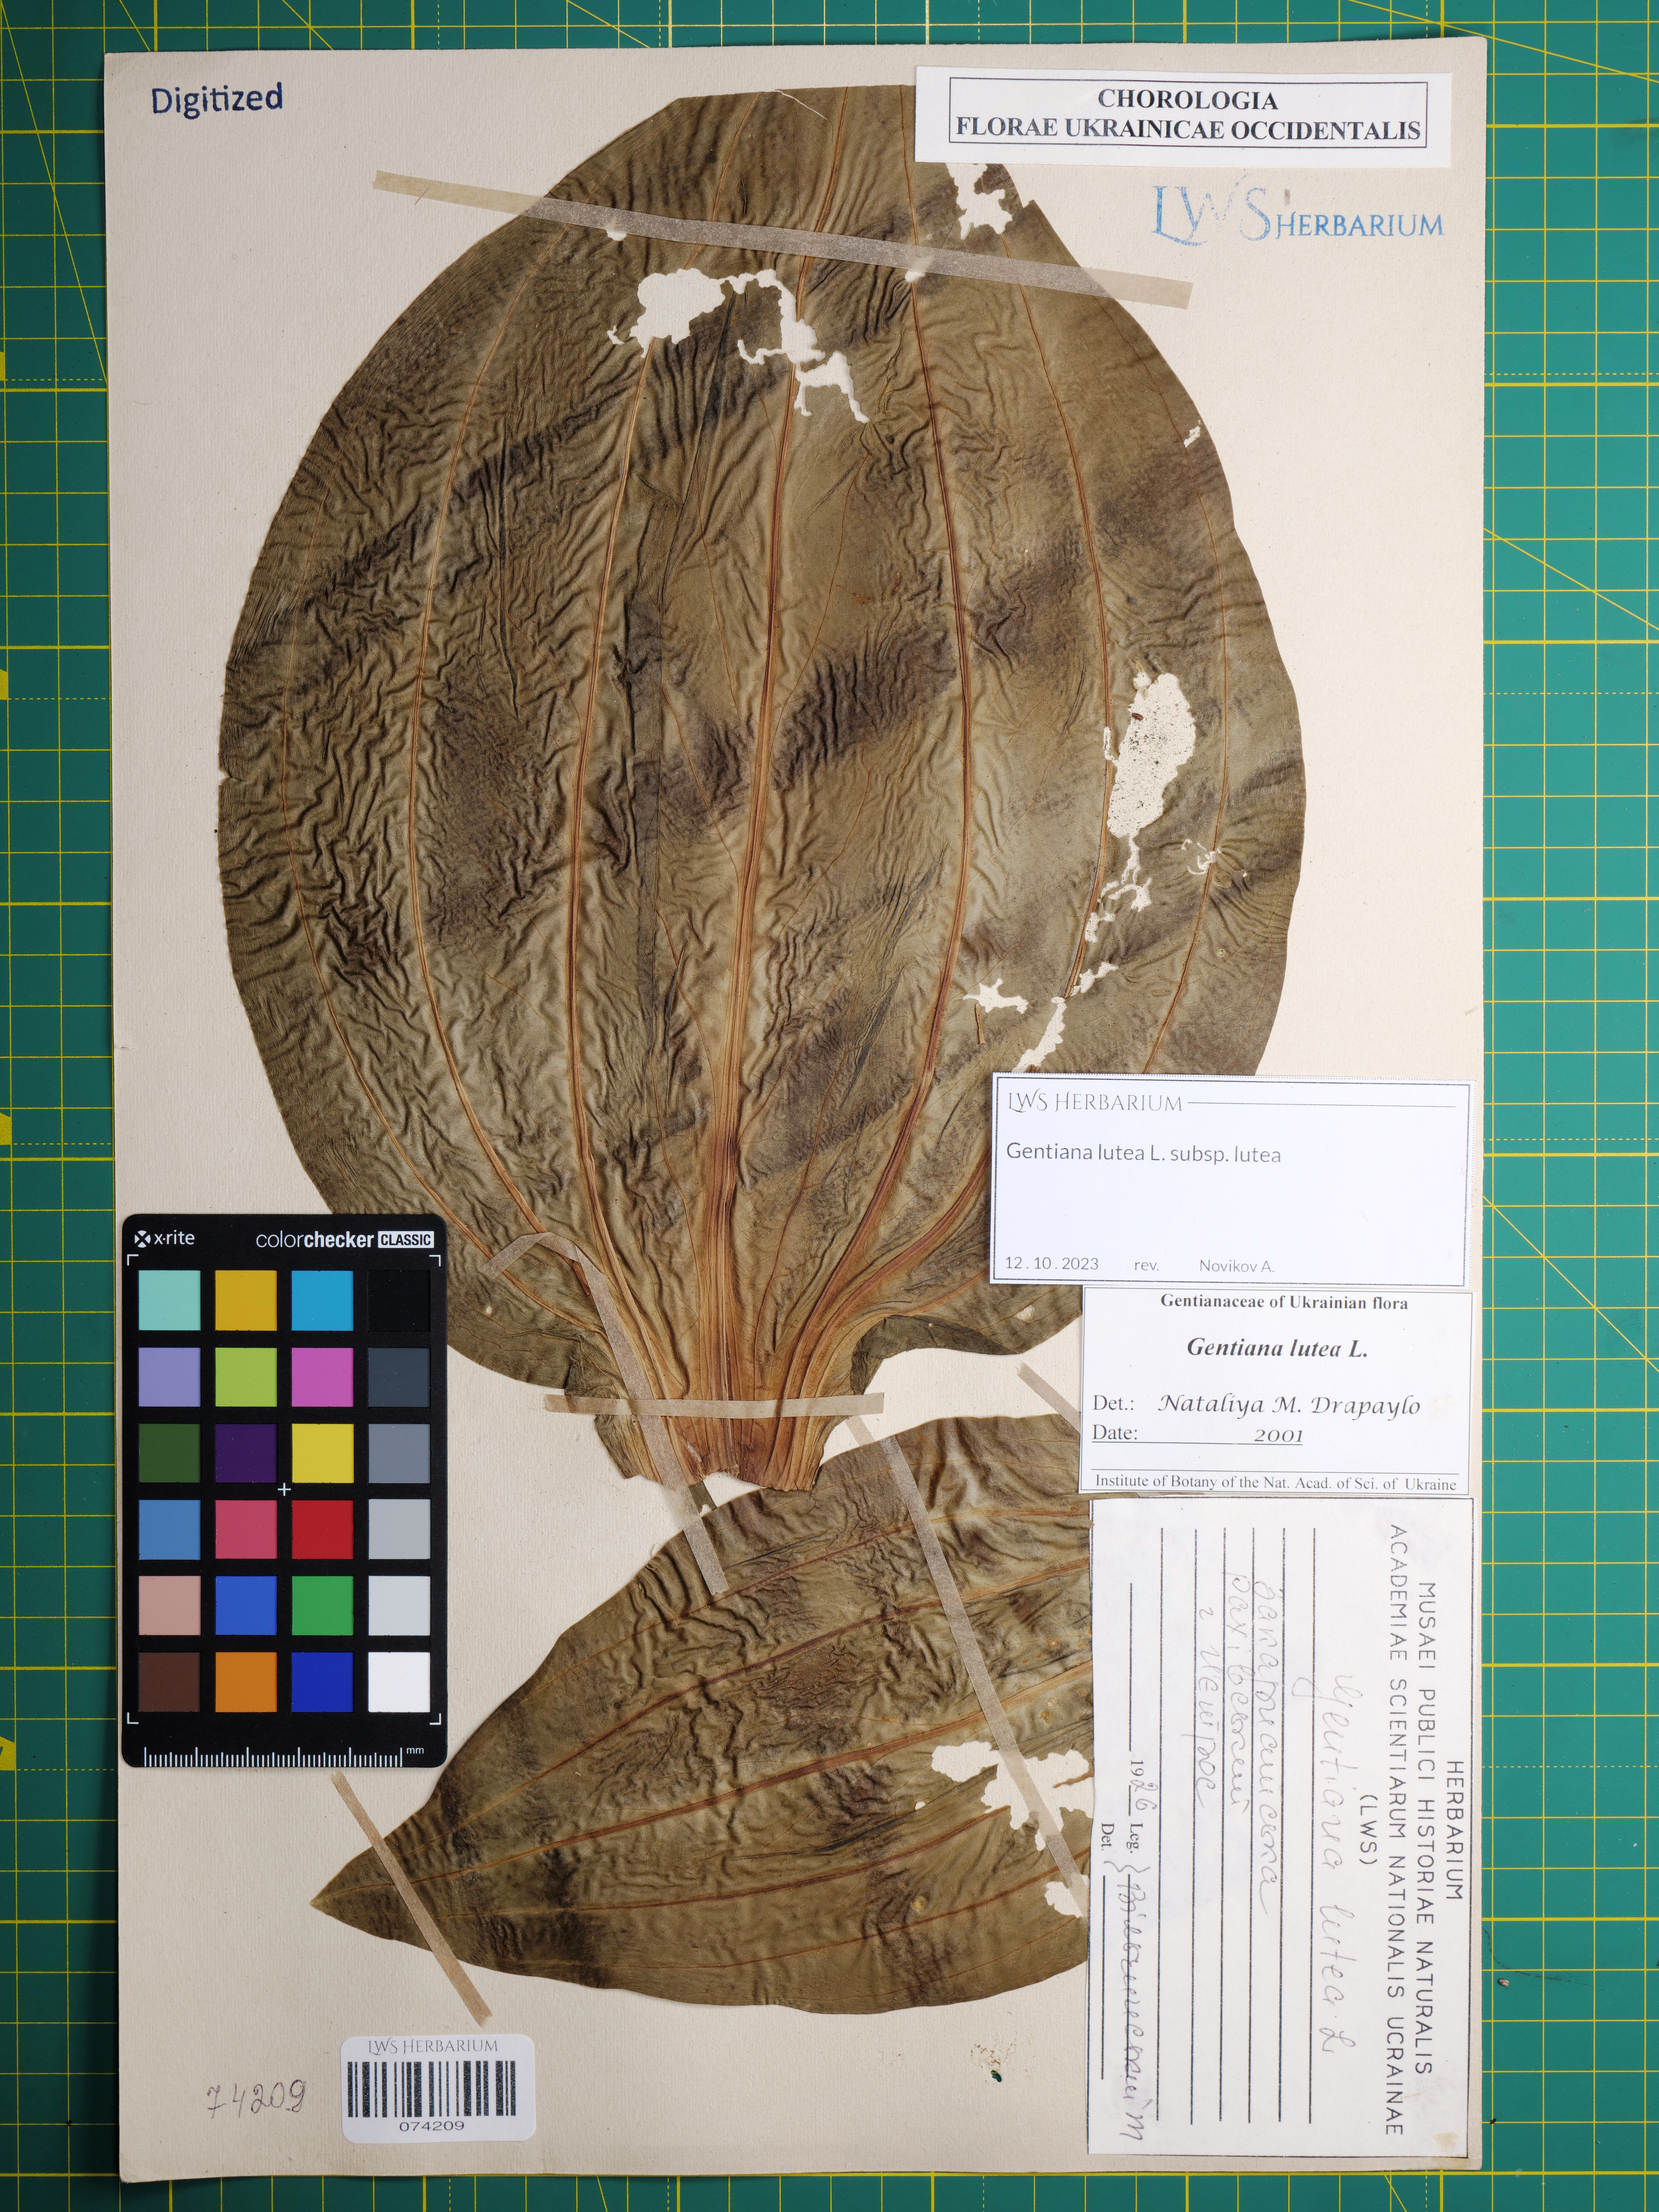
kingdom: Plantae
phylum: Tracheophyta
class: Magnoliopsida
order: Gentianales
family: Gentianaceae
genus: Gentiana
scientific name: Gentiana lutea
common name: Great yellow gentian
